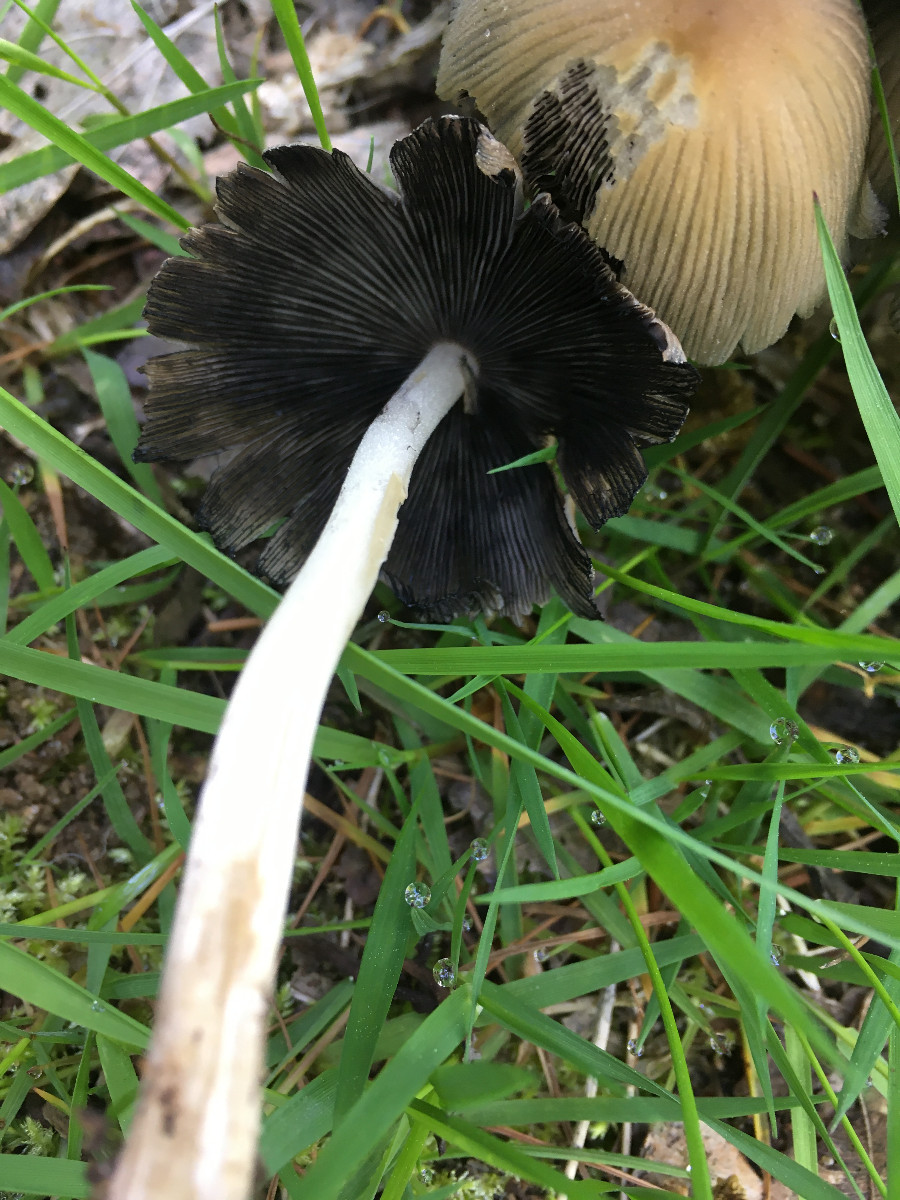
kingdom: Fungi
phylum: Basidiomycota
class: Agaricomycetes
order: Agaricales
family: Psathyrellaceae
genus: Coprinellus
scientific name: Coprinellus micaceus
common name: glimmer-blækhat
